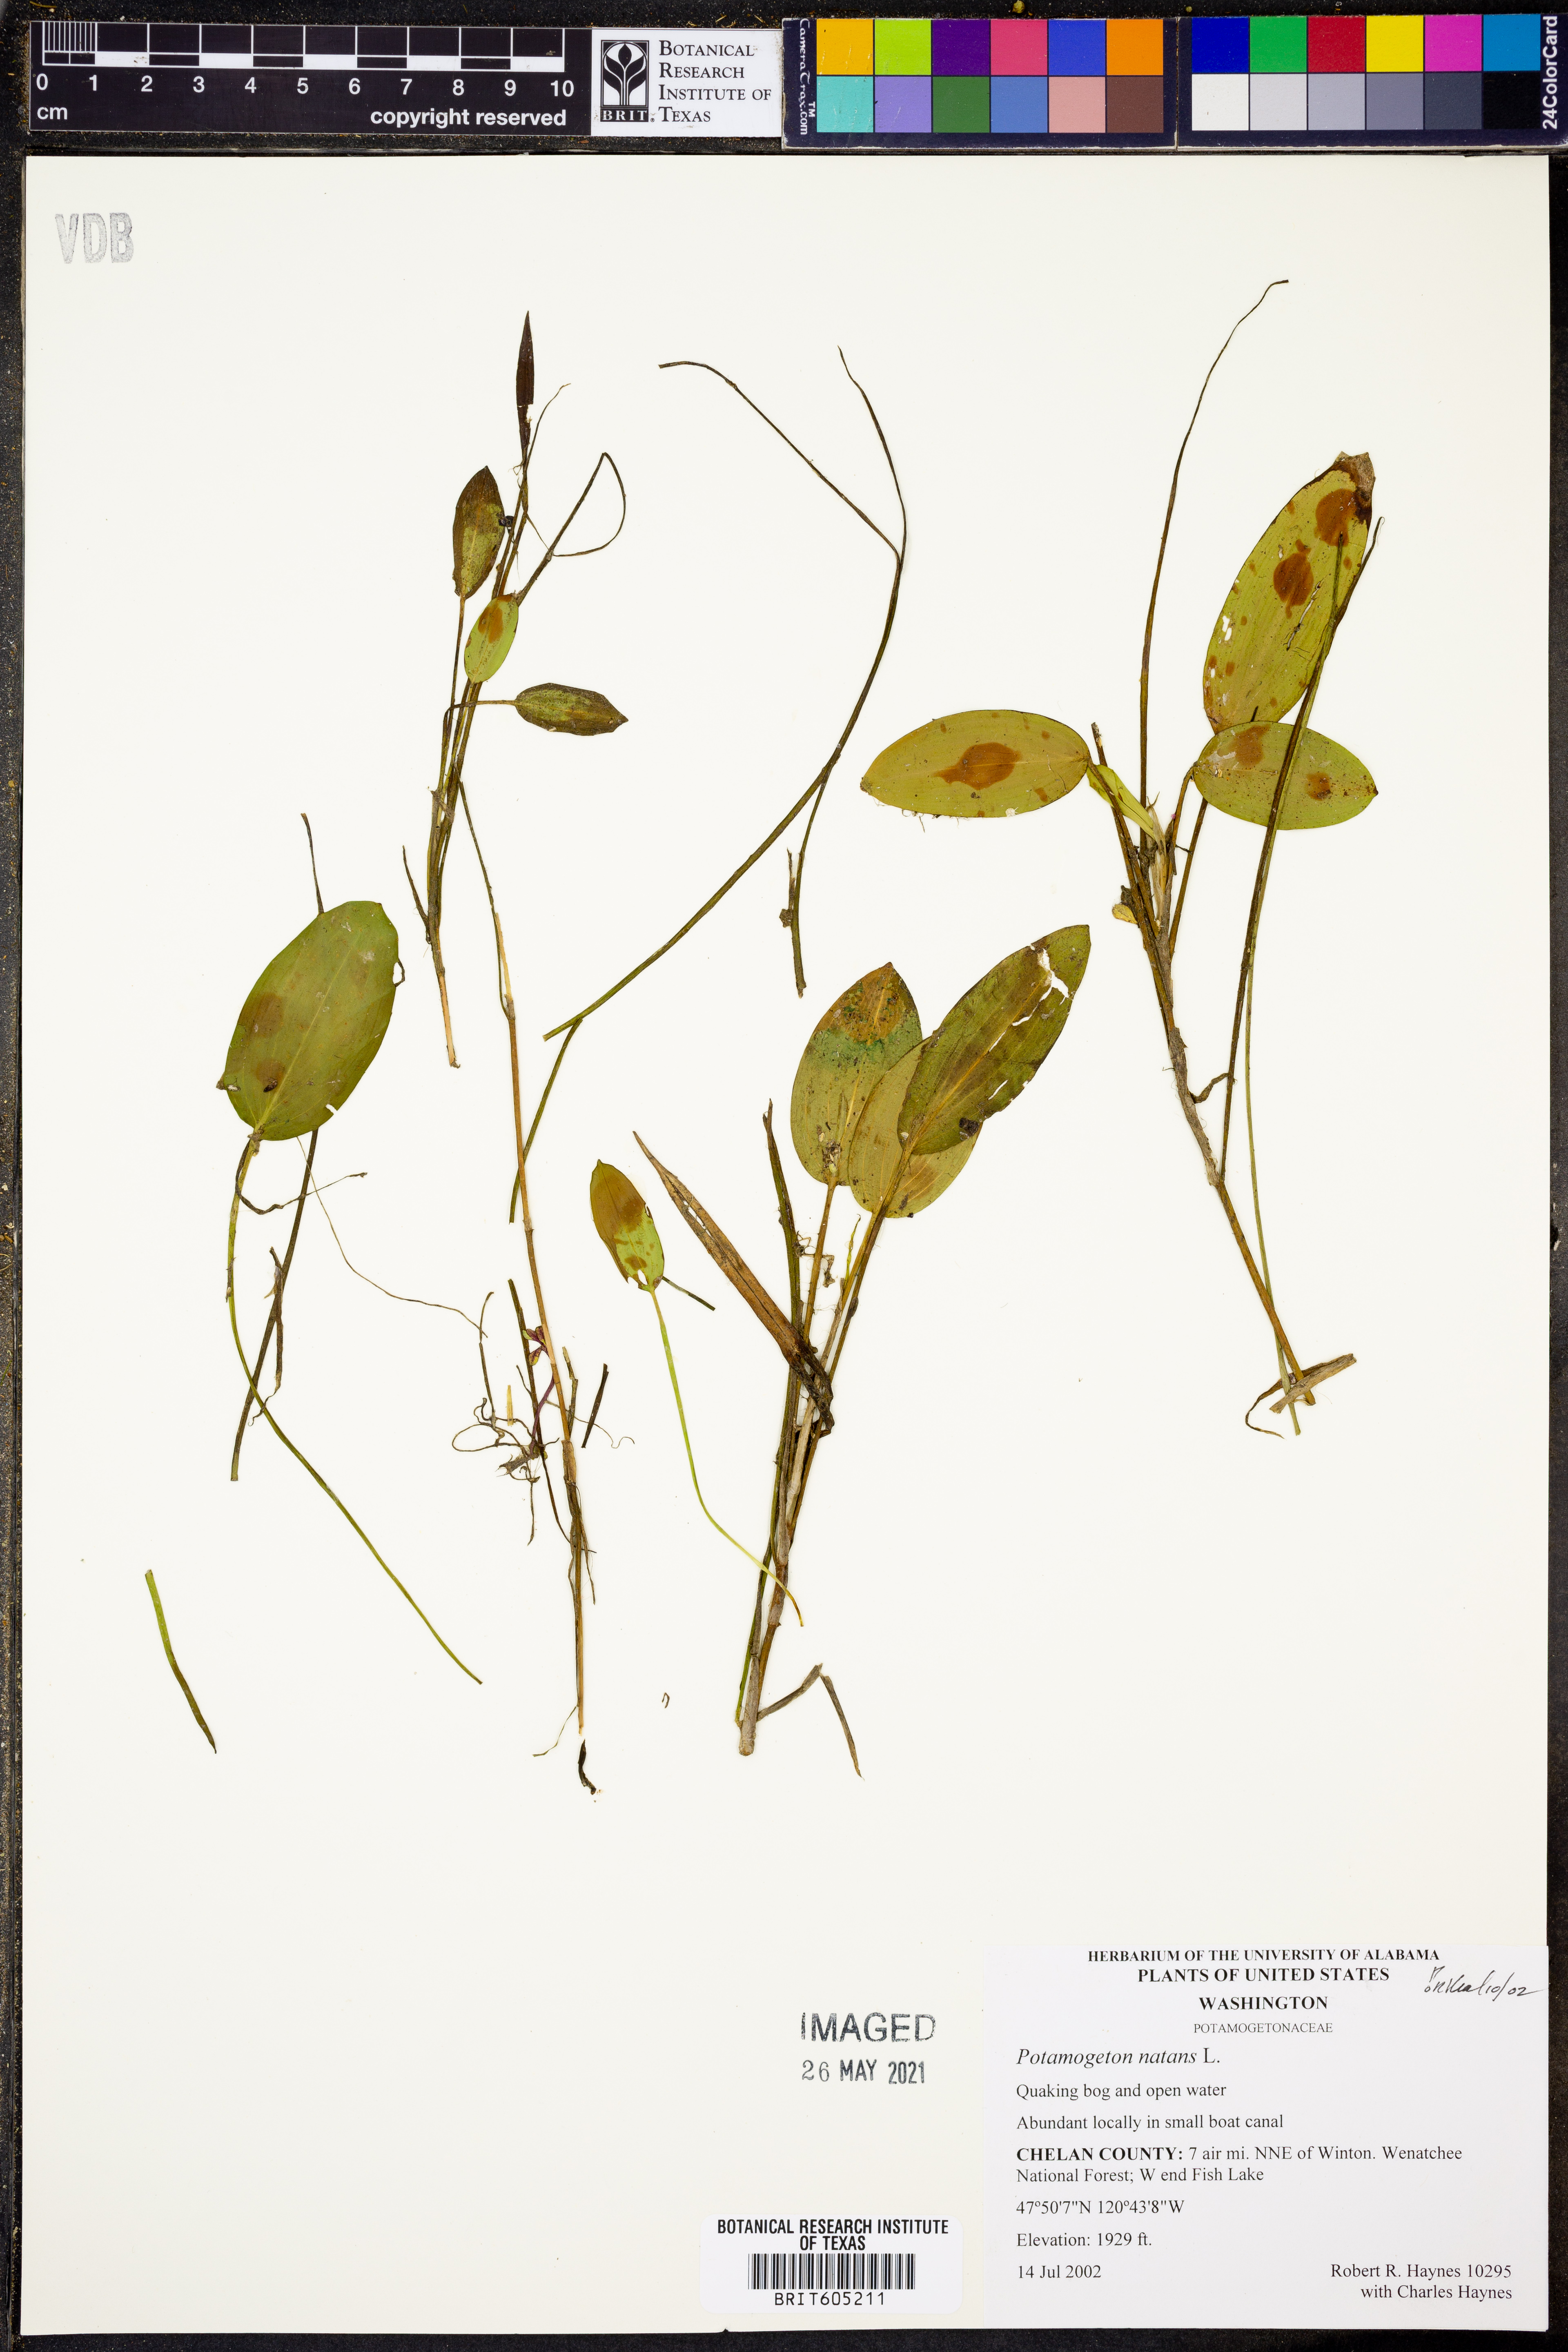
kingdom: Plantae
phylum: Tracheophyta
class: Liliopsida
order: Alismatales
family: Potamogetonaceae
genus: Potamogeton
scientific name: Potamogeton natans
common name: Broad-leaved pondweed
